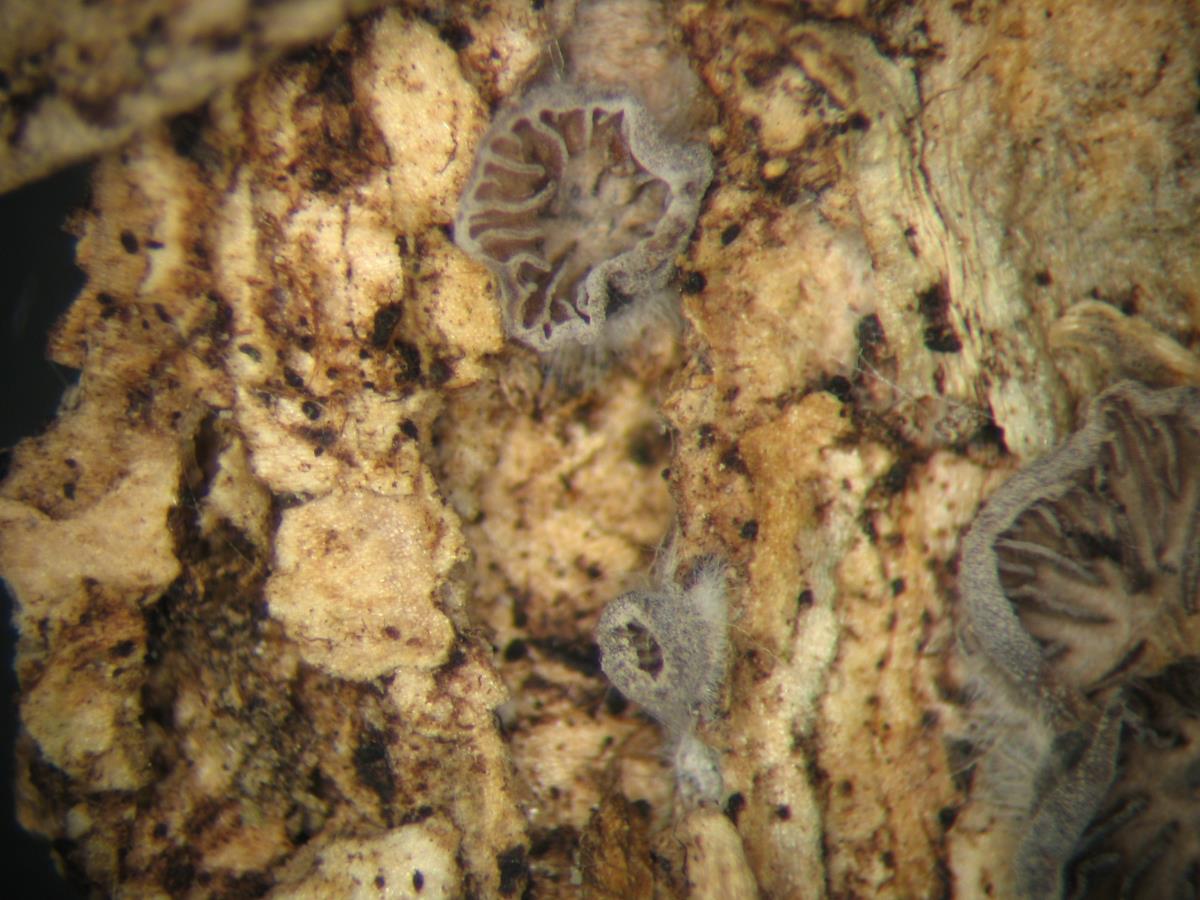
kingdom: Fungi
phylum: Basidiomycota
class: Agaricomycetes
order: Agaricales
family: Pleurotaceae
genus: Resupinatus
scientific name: Resupinatus trichotis
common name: Hairy oysterling
